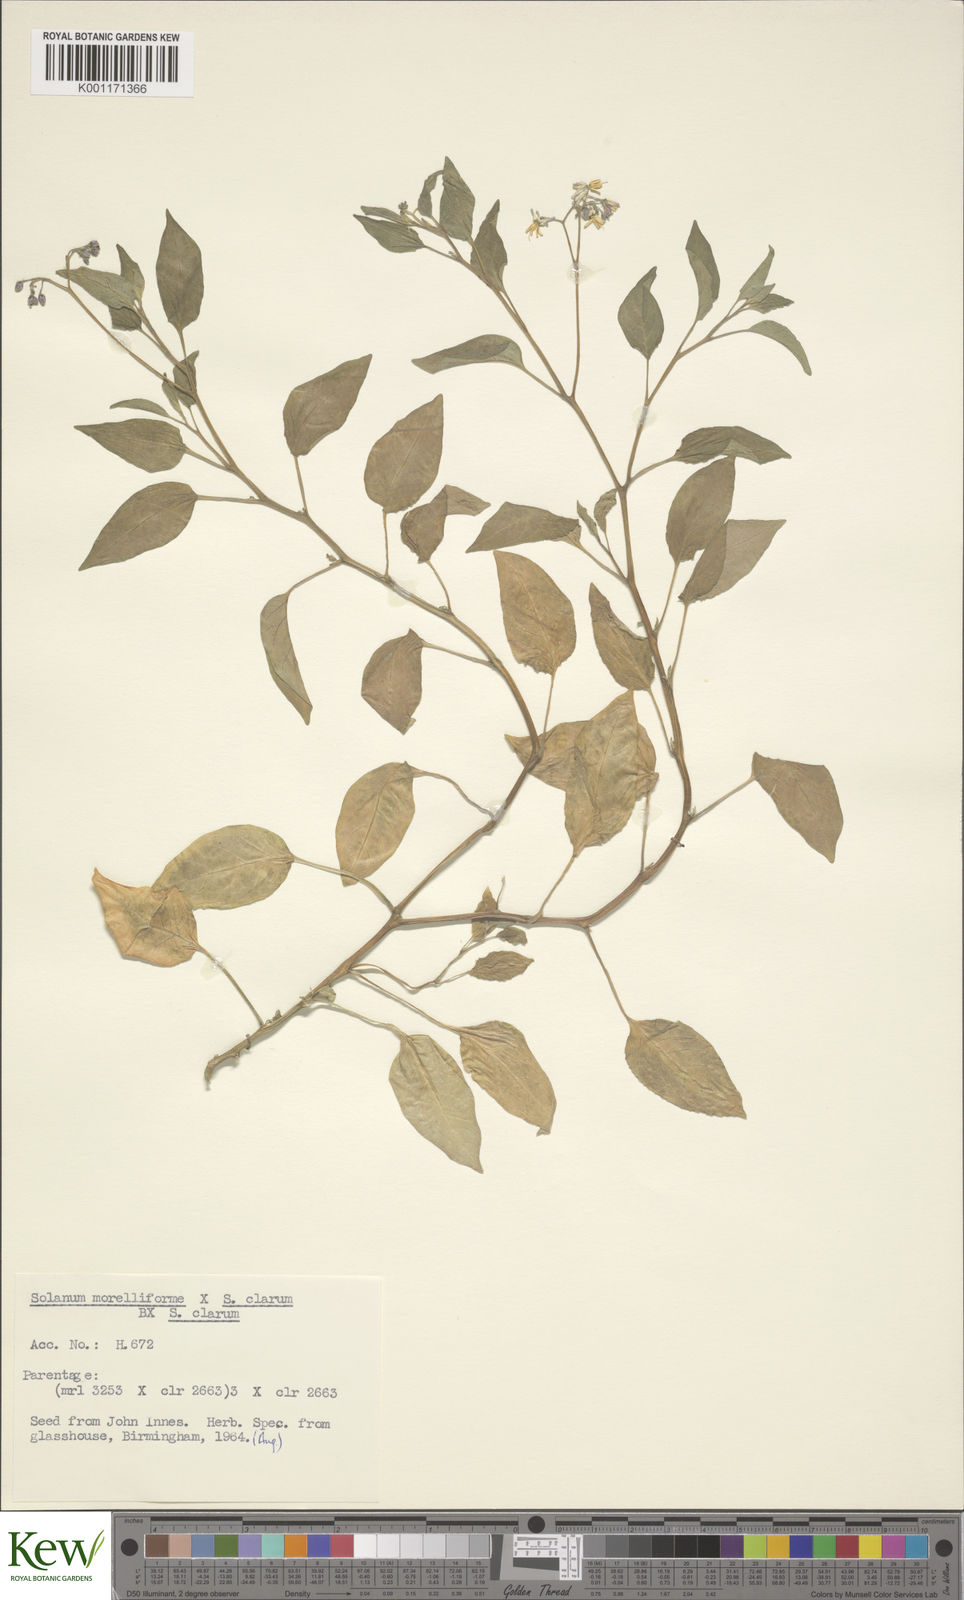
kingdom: Plantae
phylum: Tracheophyta
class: Magnoliopsida
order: Solanales
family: Solanaceae
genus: Solanum
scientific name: Solanum
